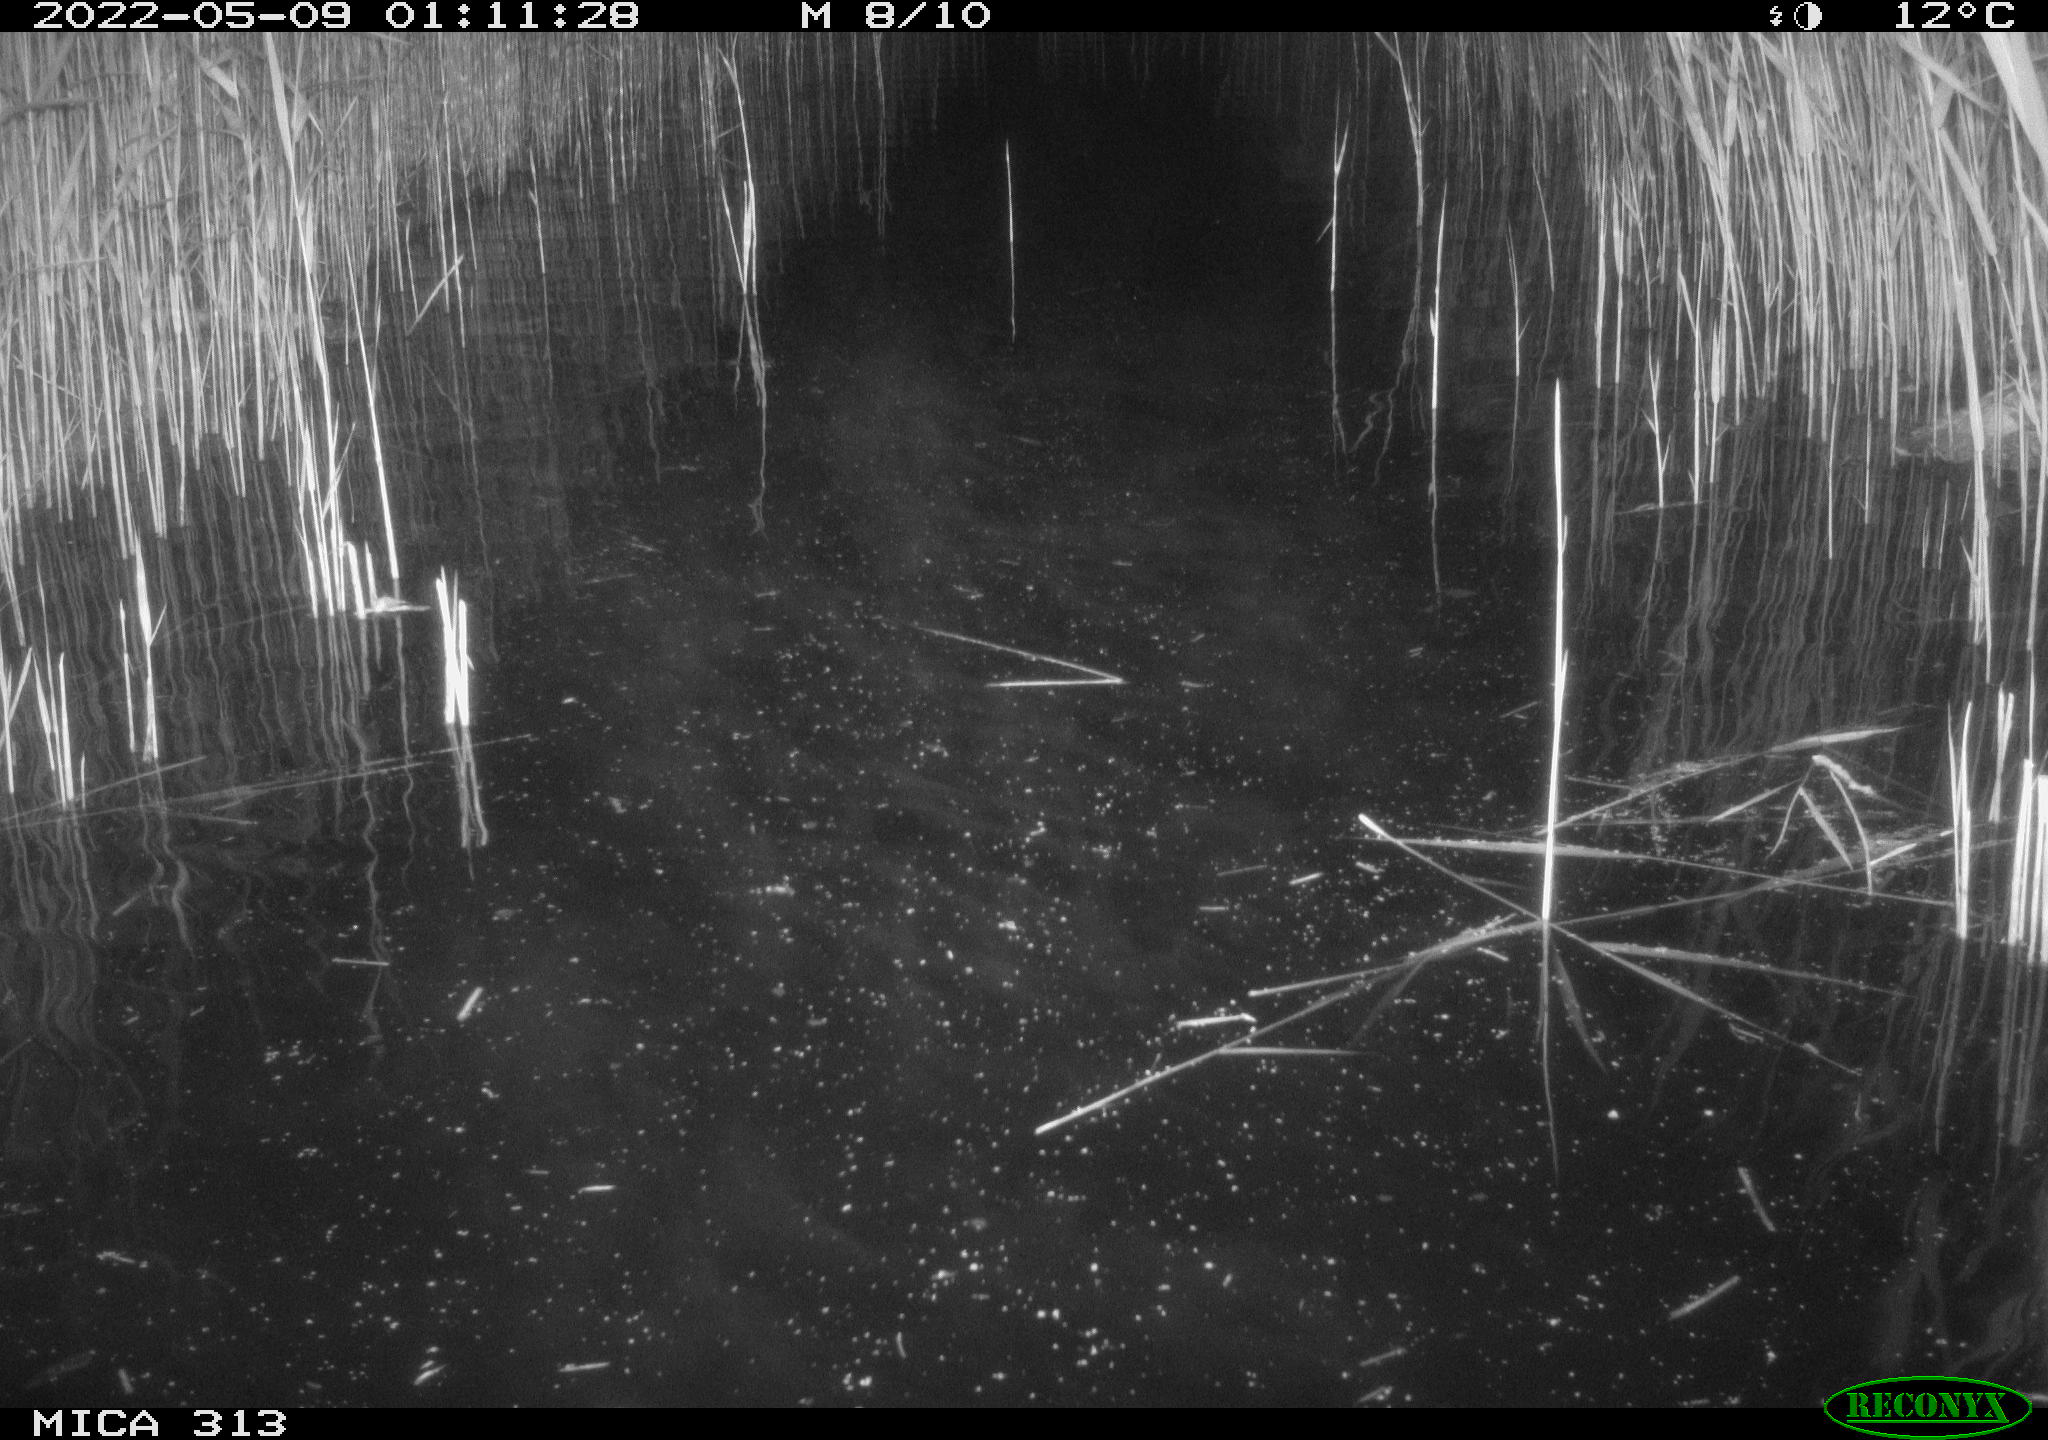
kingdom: Animalia
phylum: Chordata
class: Aves
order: Anseriformes
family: Anatidae
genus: Anas
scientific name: Anas platyrhynchos
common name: Mallard
